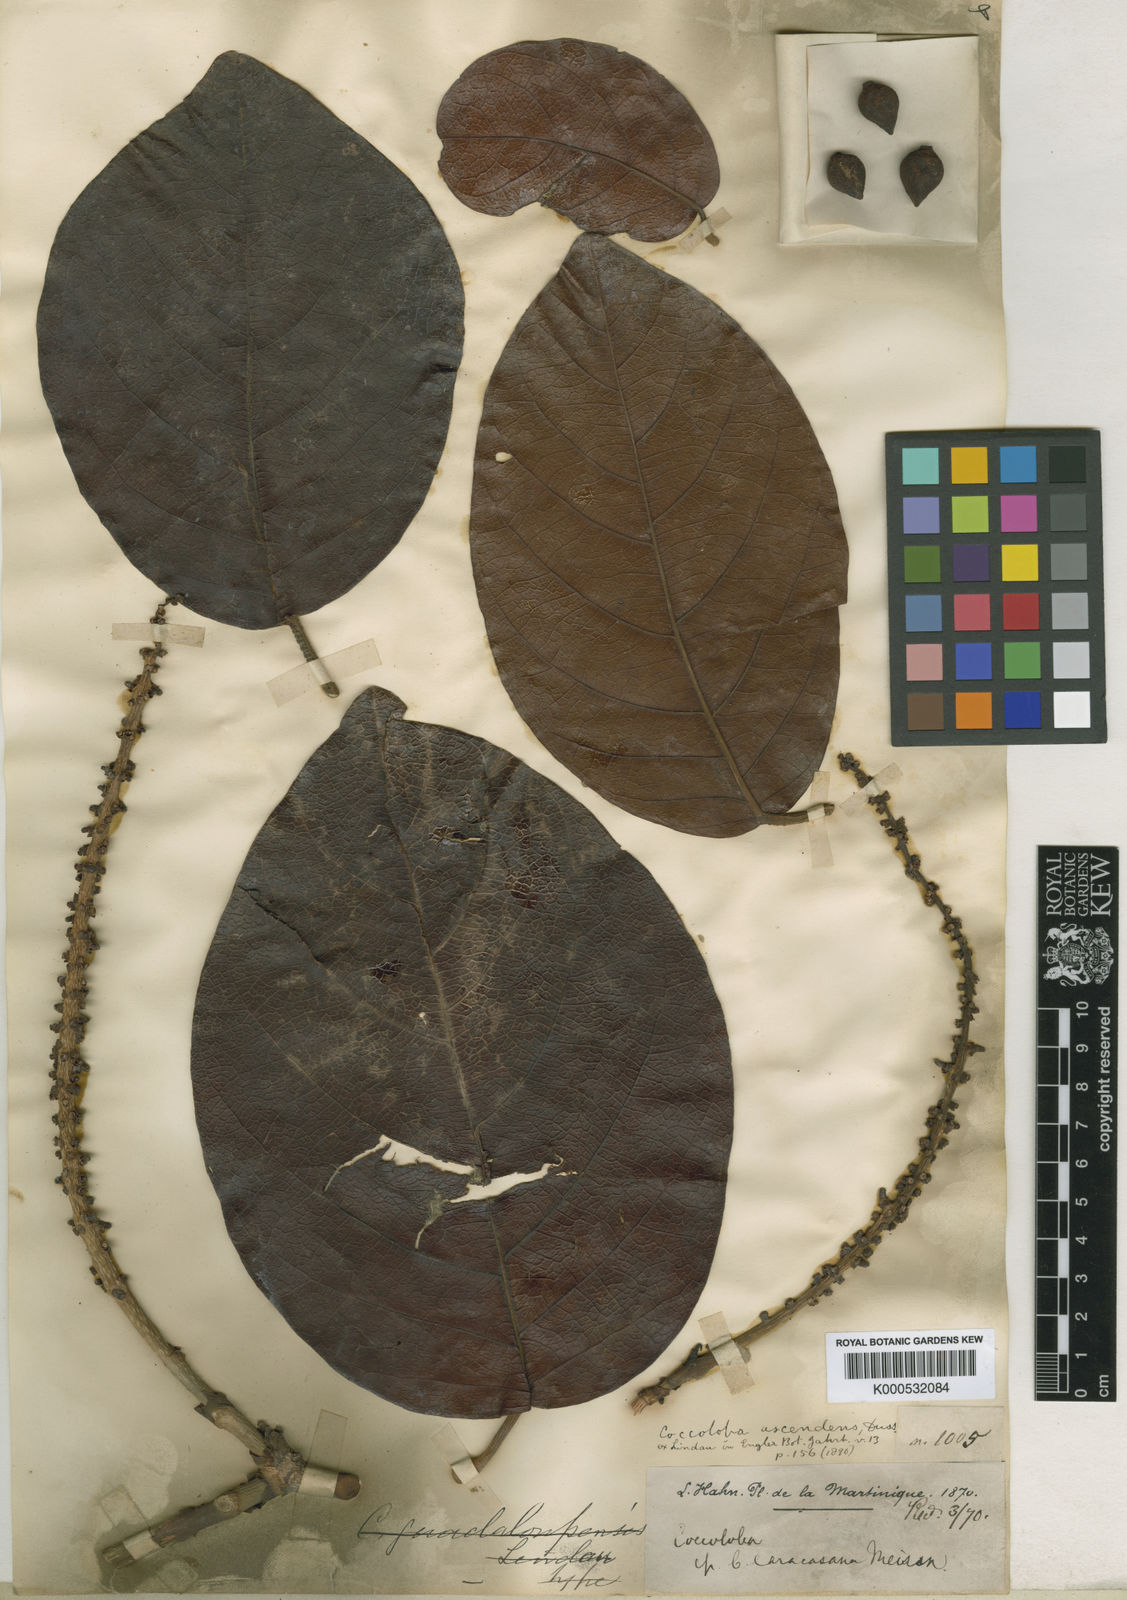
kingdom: Plantae
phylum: Tracheophyta
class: Magnoliopsida
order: Caryophyllales
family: Polygonaceae
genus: Coccoloba
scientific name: Coccoloba
